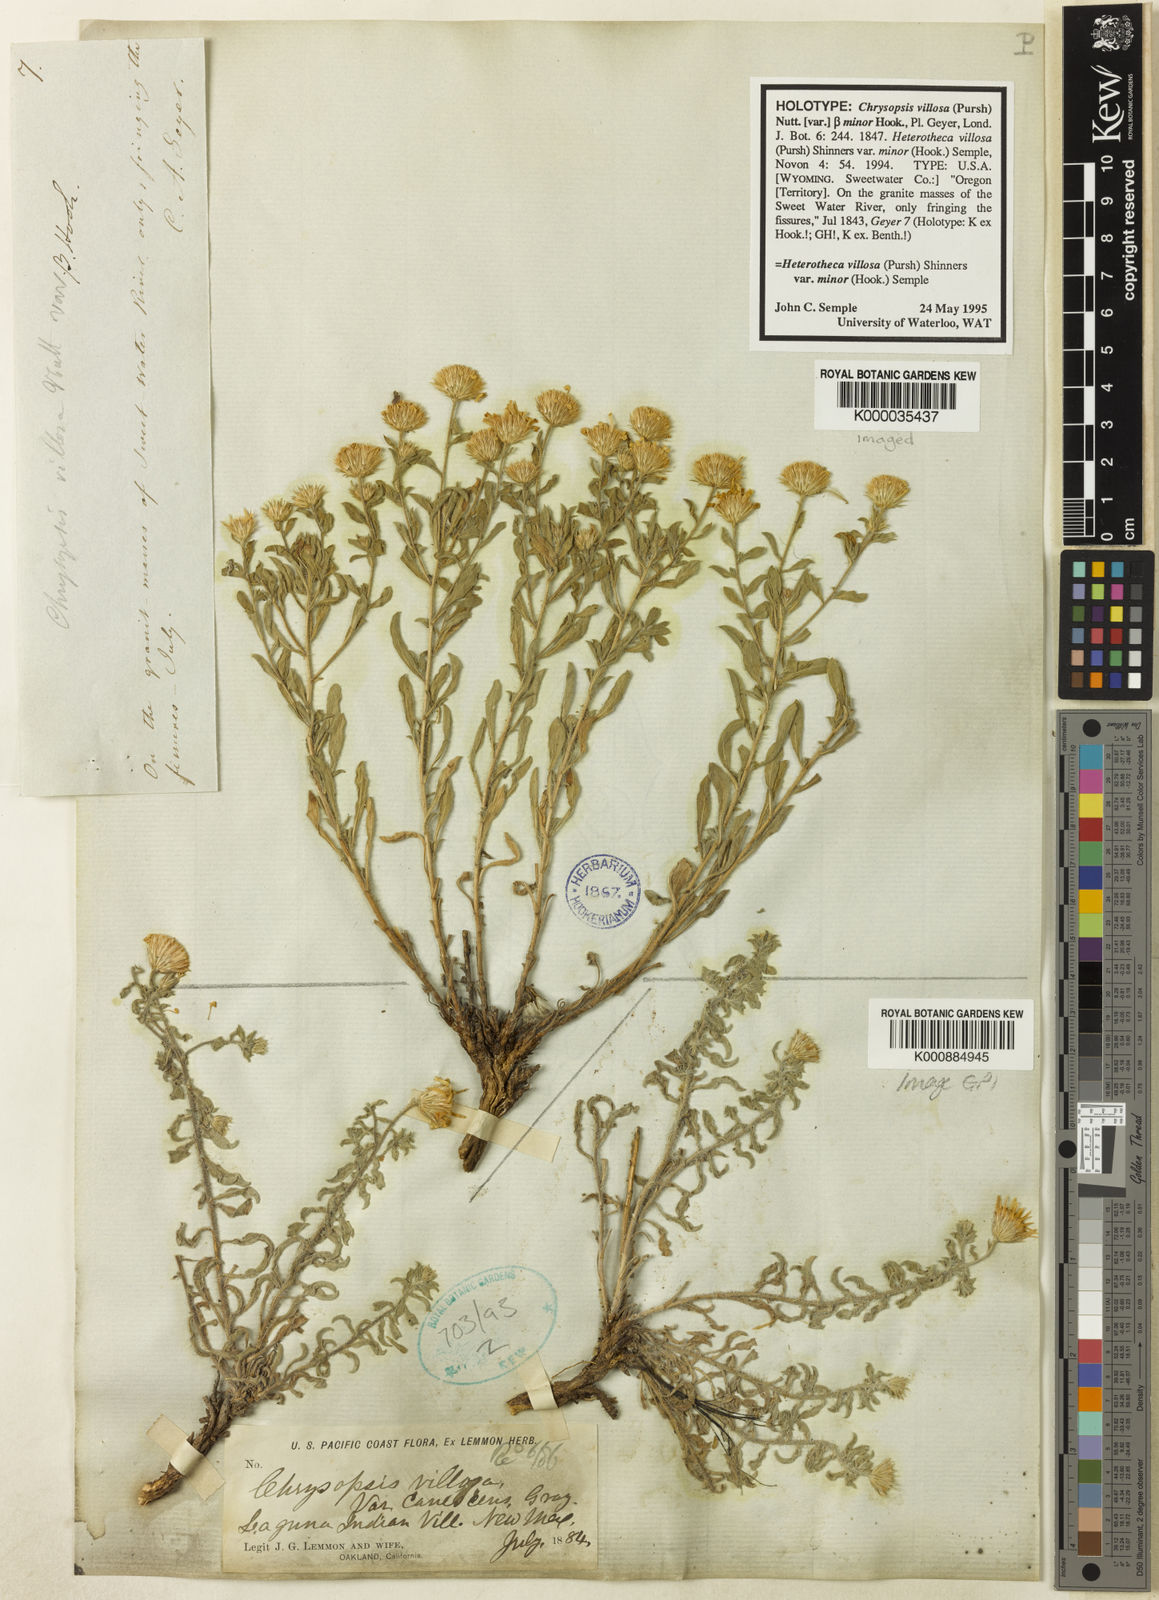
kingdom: Plantae
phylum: Tracheophyta
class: Magnoliopsida
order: Asterales
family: Asteraceae
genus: Heterotheca
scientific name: Heterotheca hirsutissima
